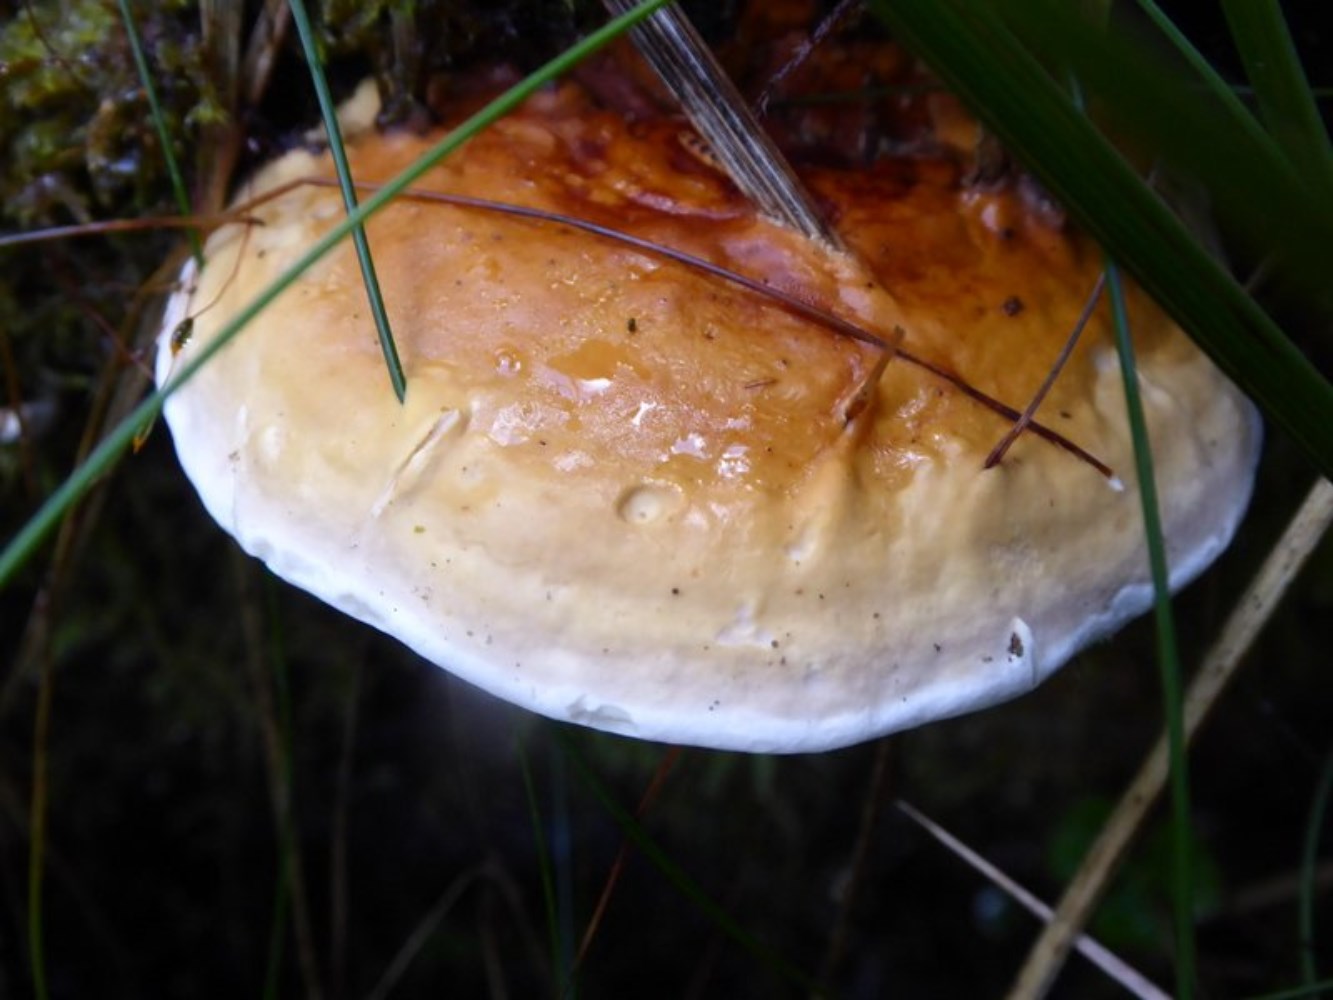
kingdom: Fungi
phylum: Basidiomycota
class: Agaricomycetes
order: Polyporales
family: Fomitopsidaceae
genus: Fomitopsis
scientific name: Fomitopsis pinicola
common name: randbæltet hovporesvamp
